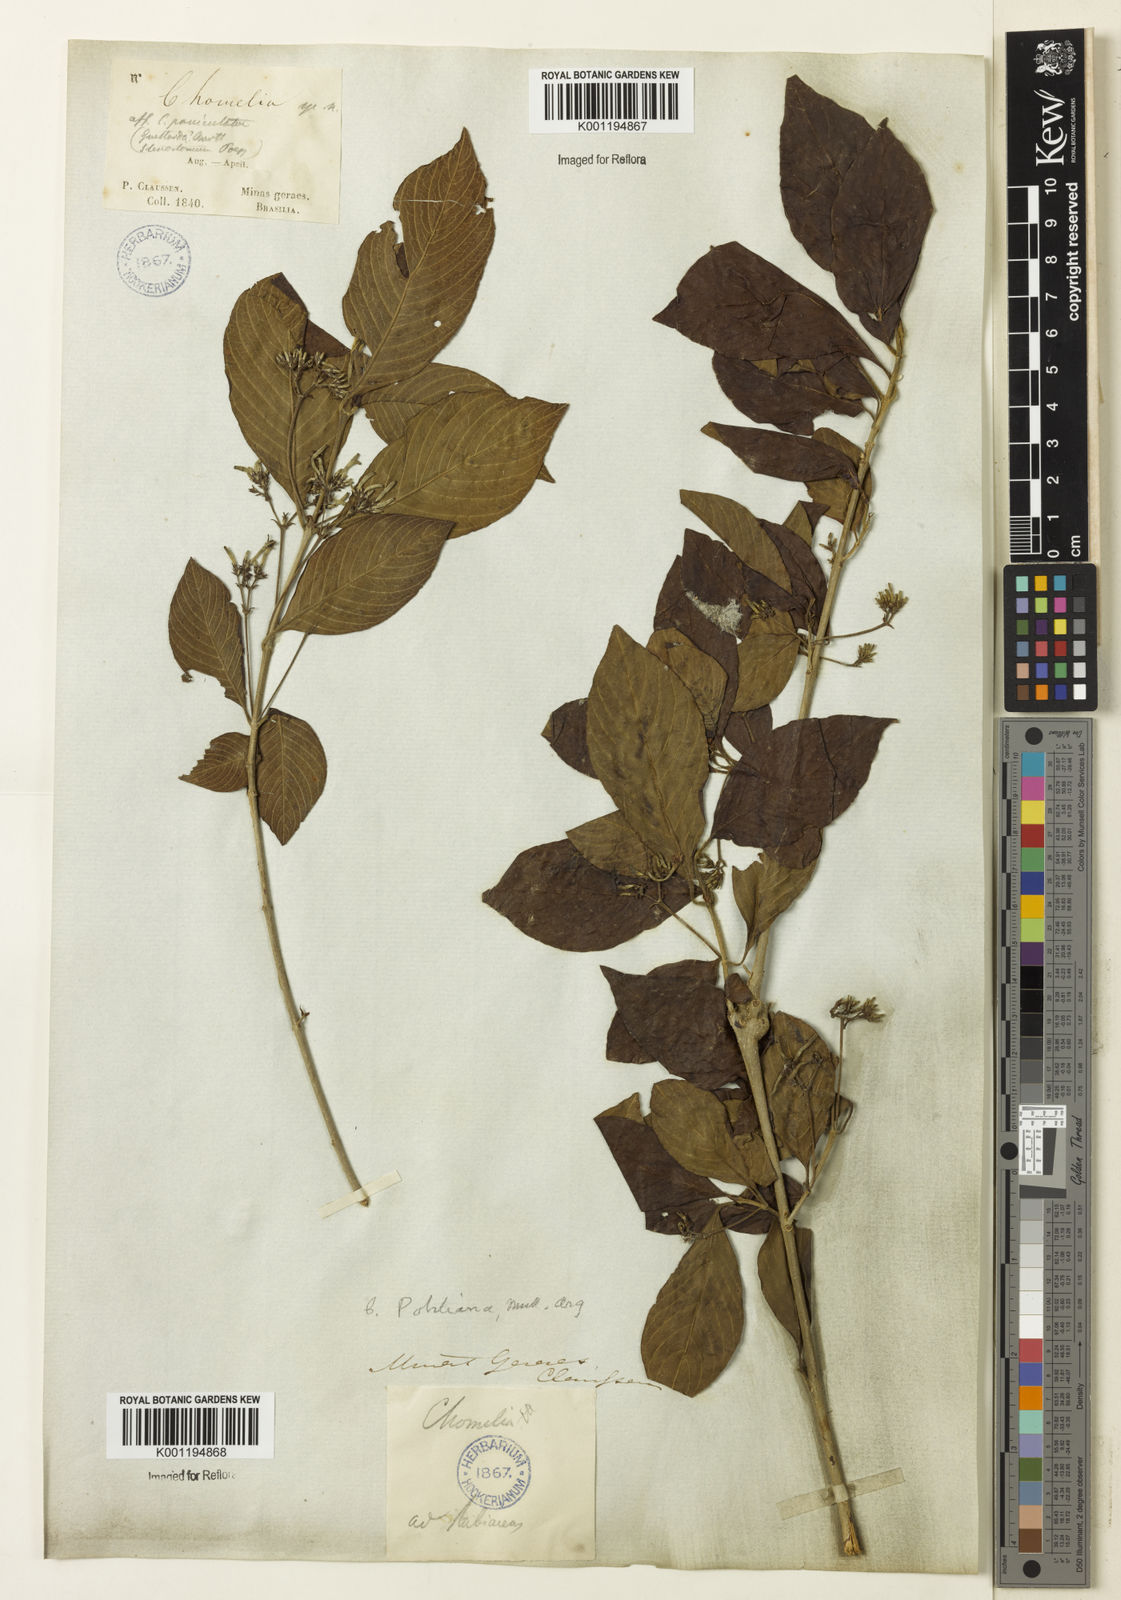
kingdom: Plantae
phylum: Tracheophyta
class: Magnoliopsida
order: Gentianales
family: Rubiaceae
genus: Chomelia
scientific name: Chomelia
